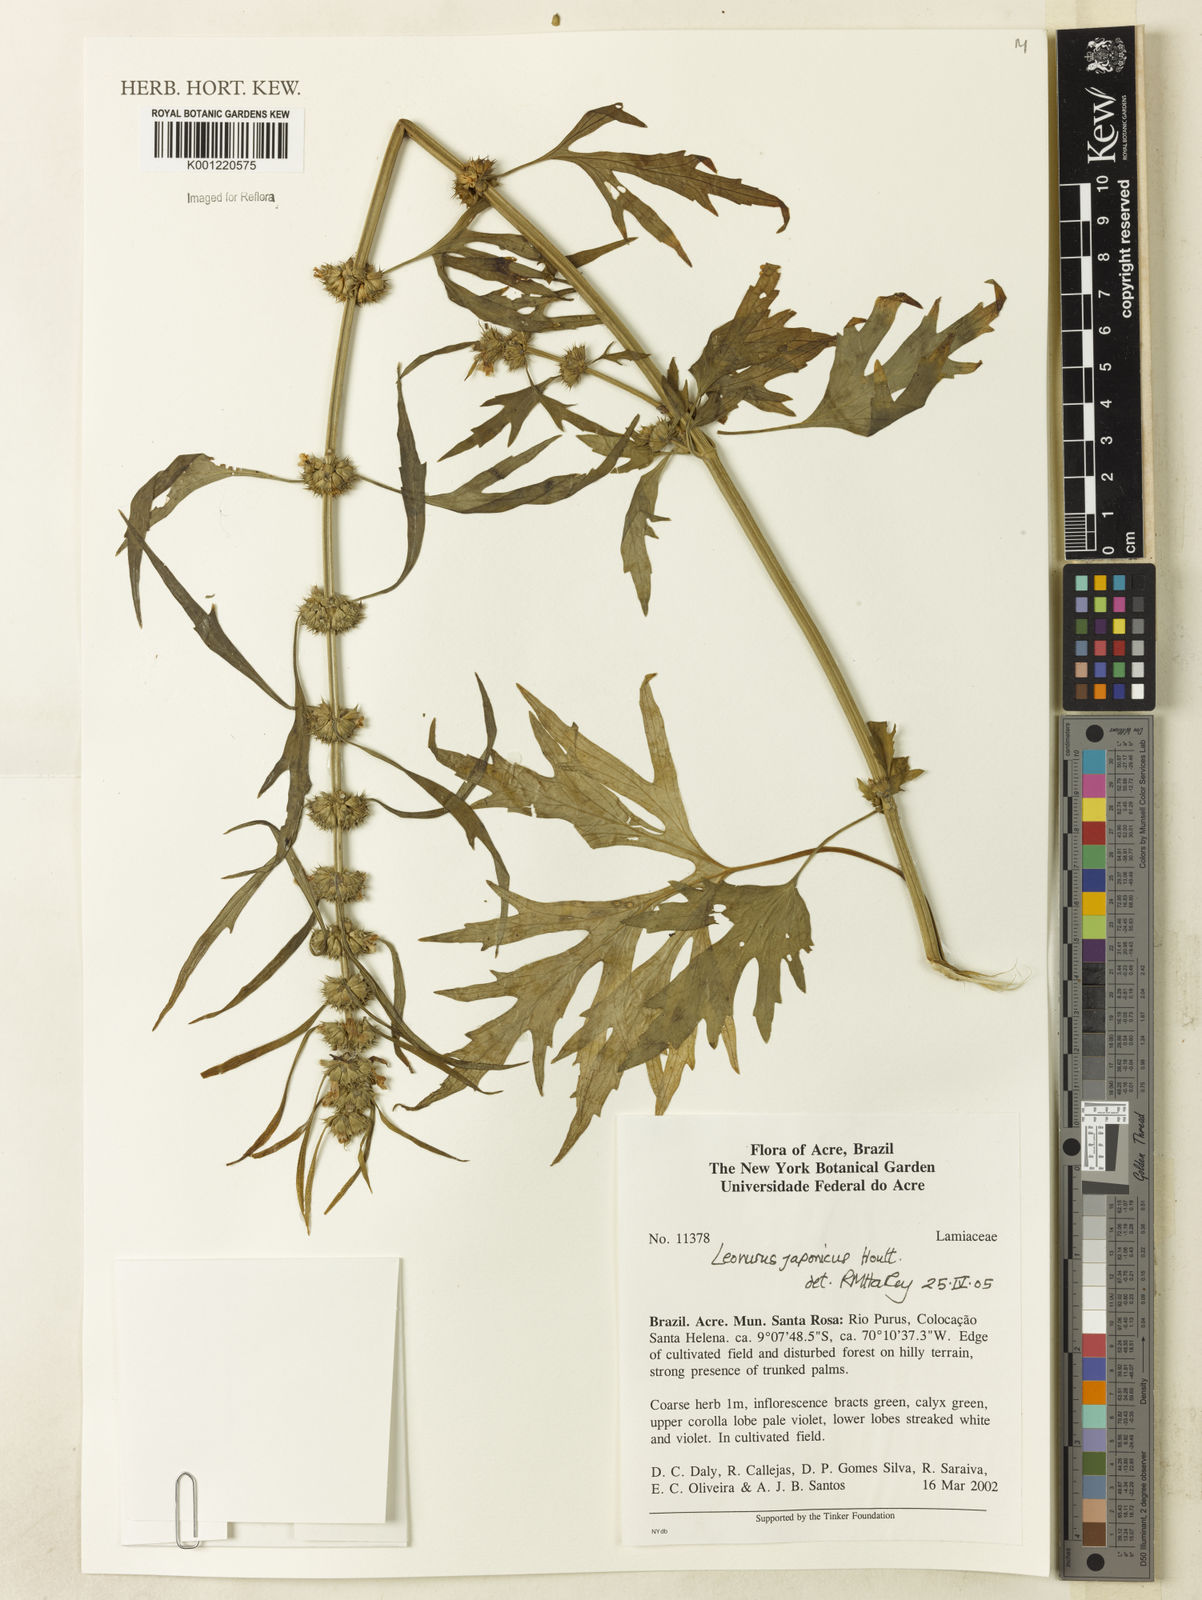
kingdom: Plantae
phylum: Tracheophyta
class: Magnoliopsida
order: Lamiales
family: Lamiaceae
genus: Leonurus
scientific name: Leonurus japonicus
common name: Honeyweed
